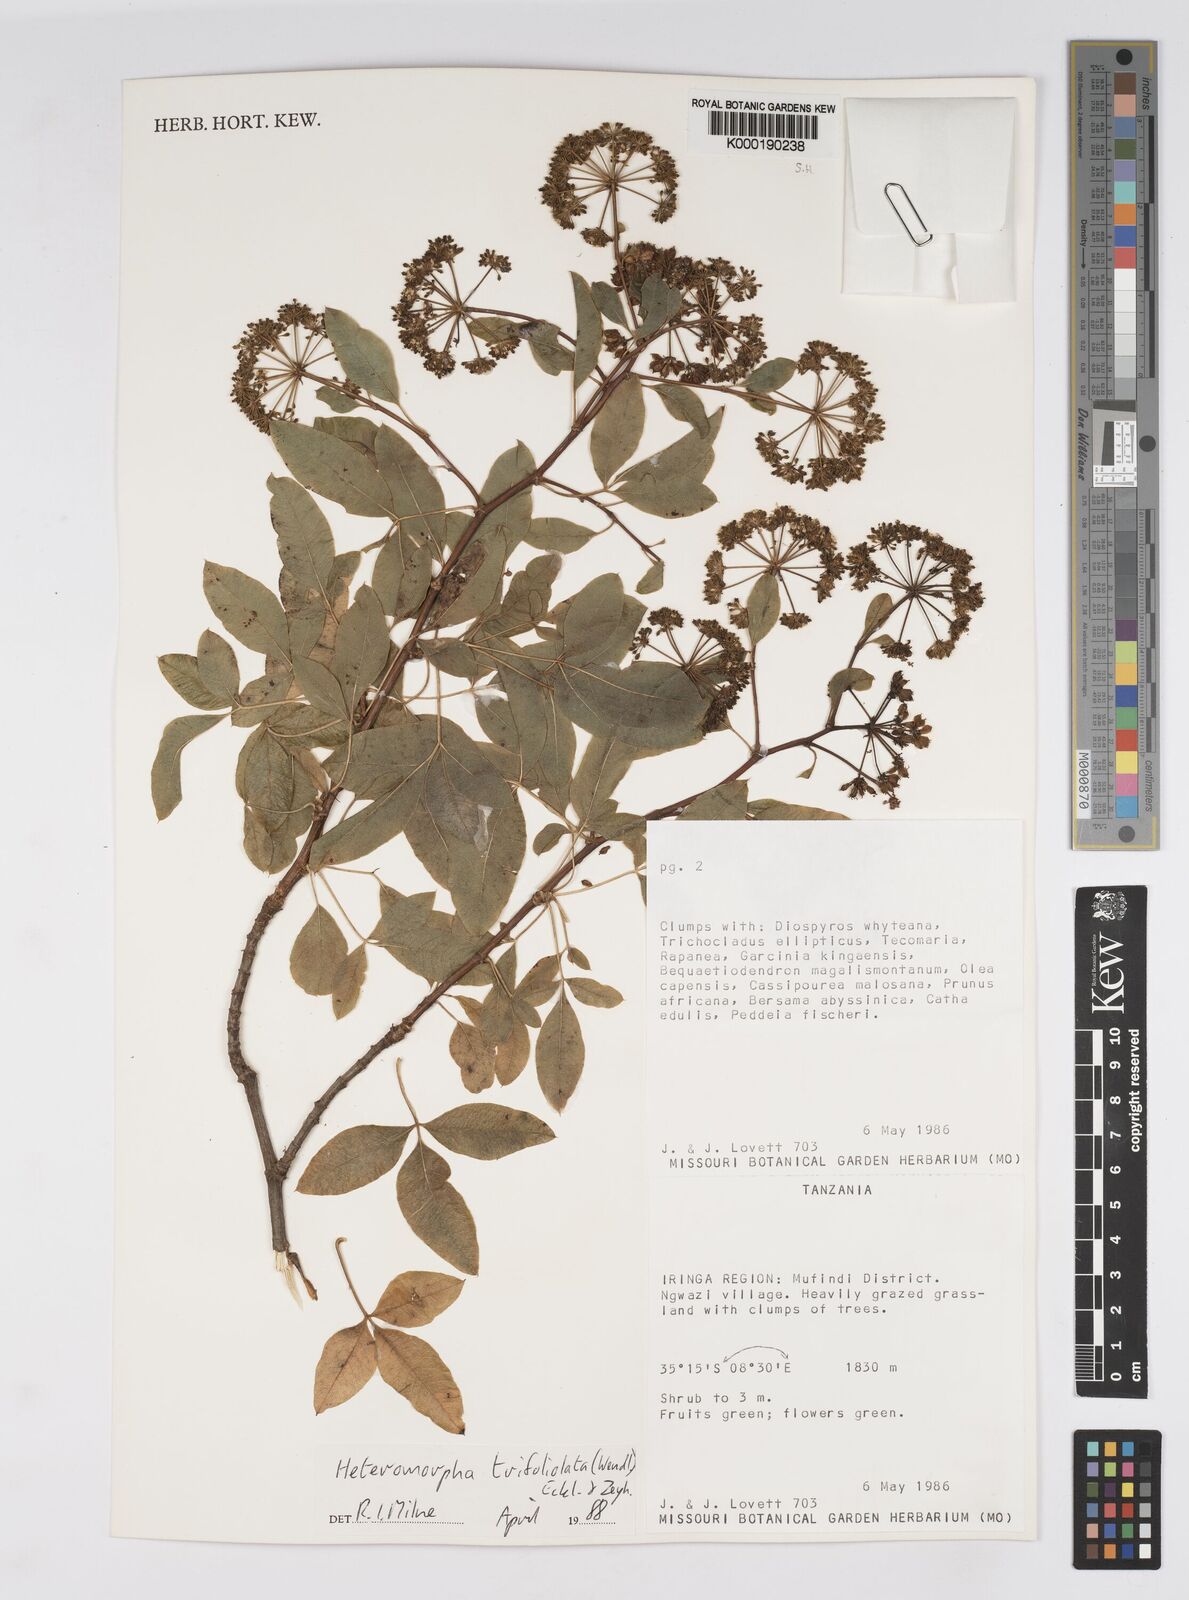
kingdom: Plantae
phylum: Tracheophyta
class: Magnoliopsida
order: Apiales
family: Apiaceae
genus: Heteromorpha
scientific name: Heteromorpha arborescens
